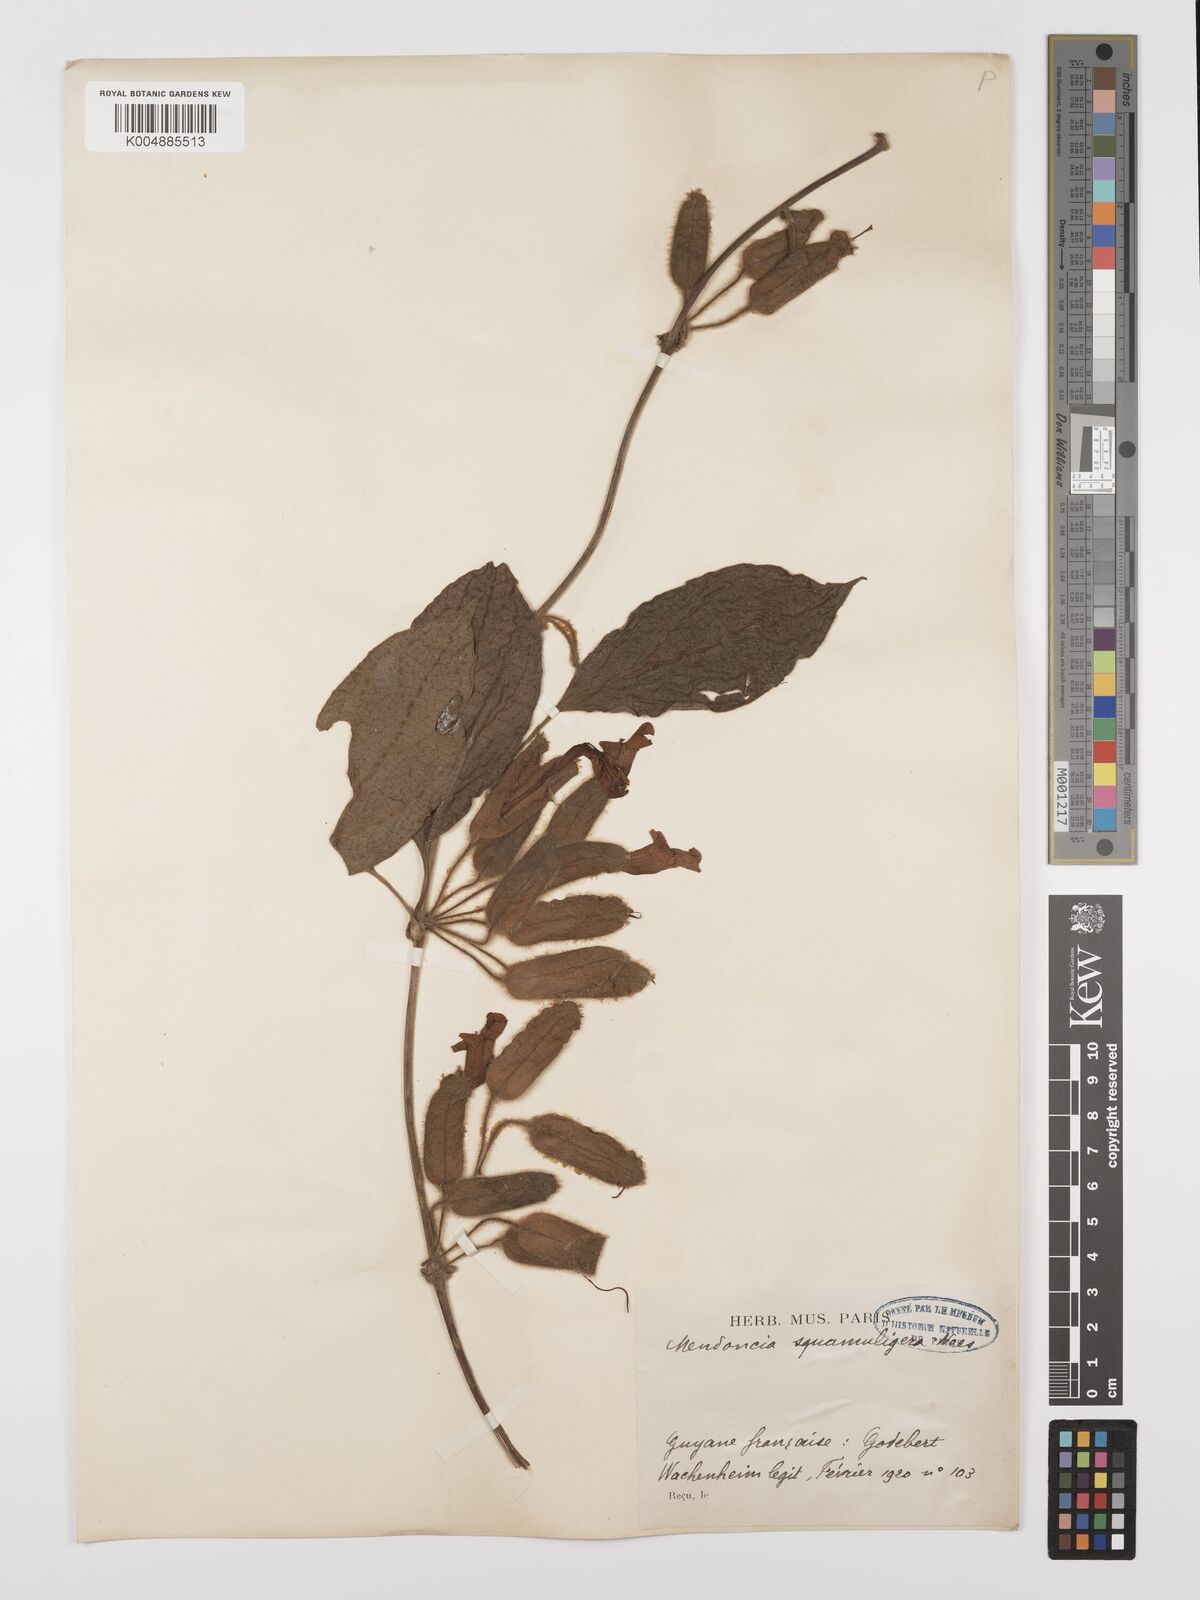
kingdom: Plantae
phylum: Tracheophyta
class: Magnoliopsida
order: Lamiales
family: Acanthaceae
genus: Mendoncia
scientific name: Mendoncia squamuligera
